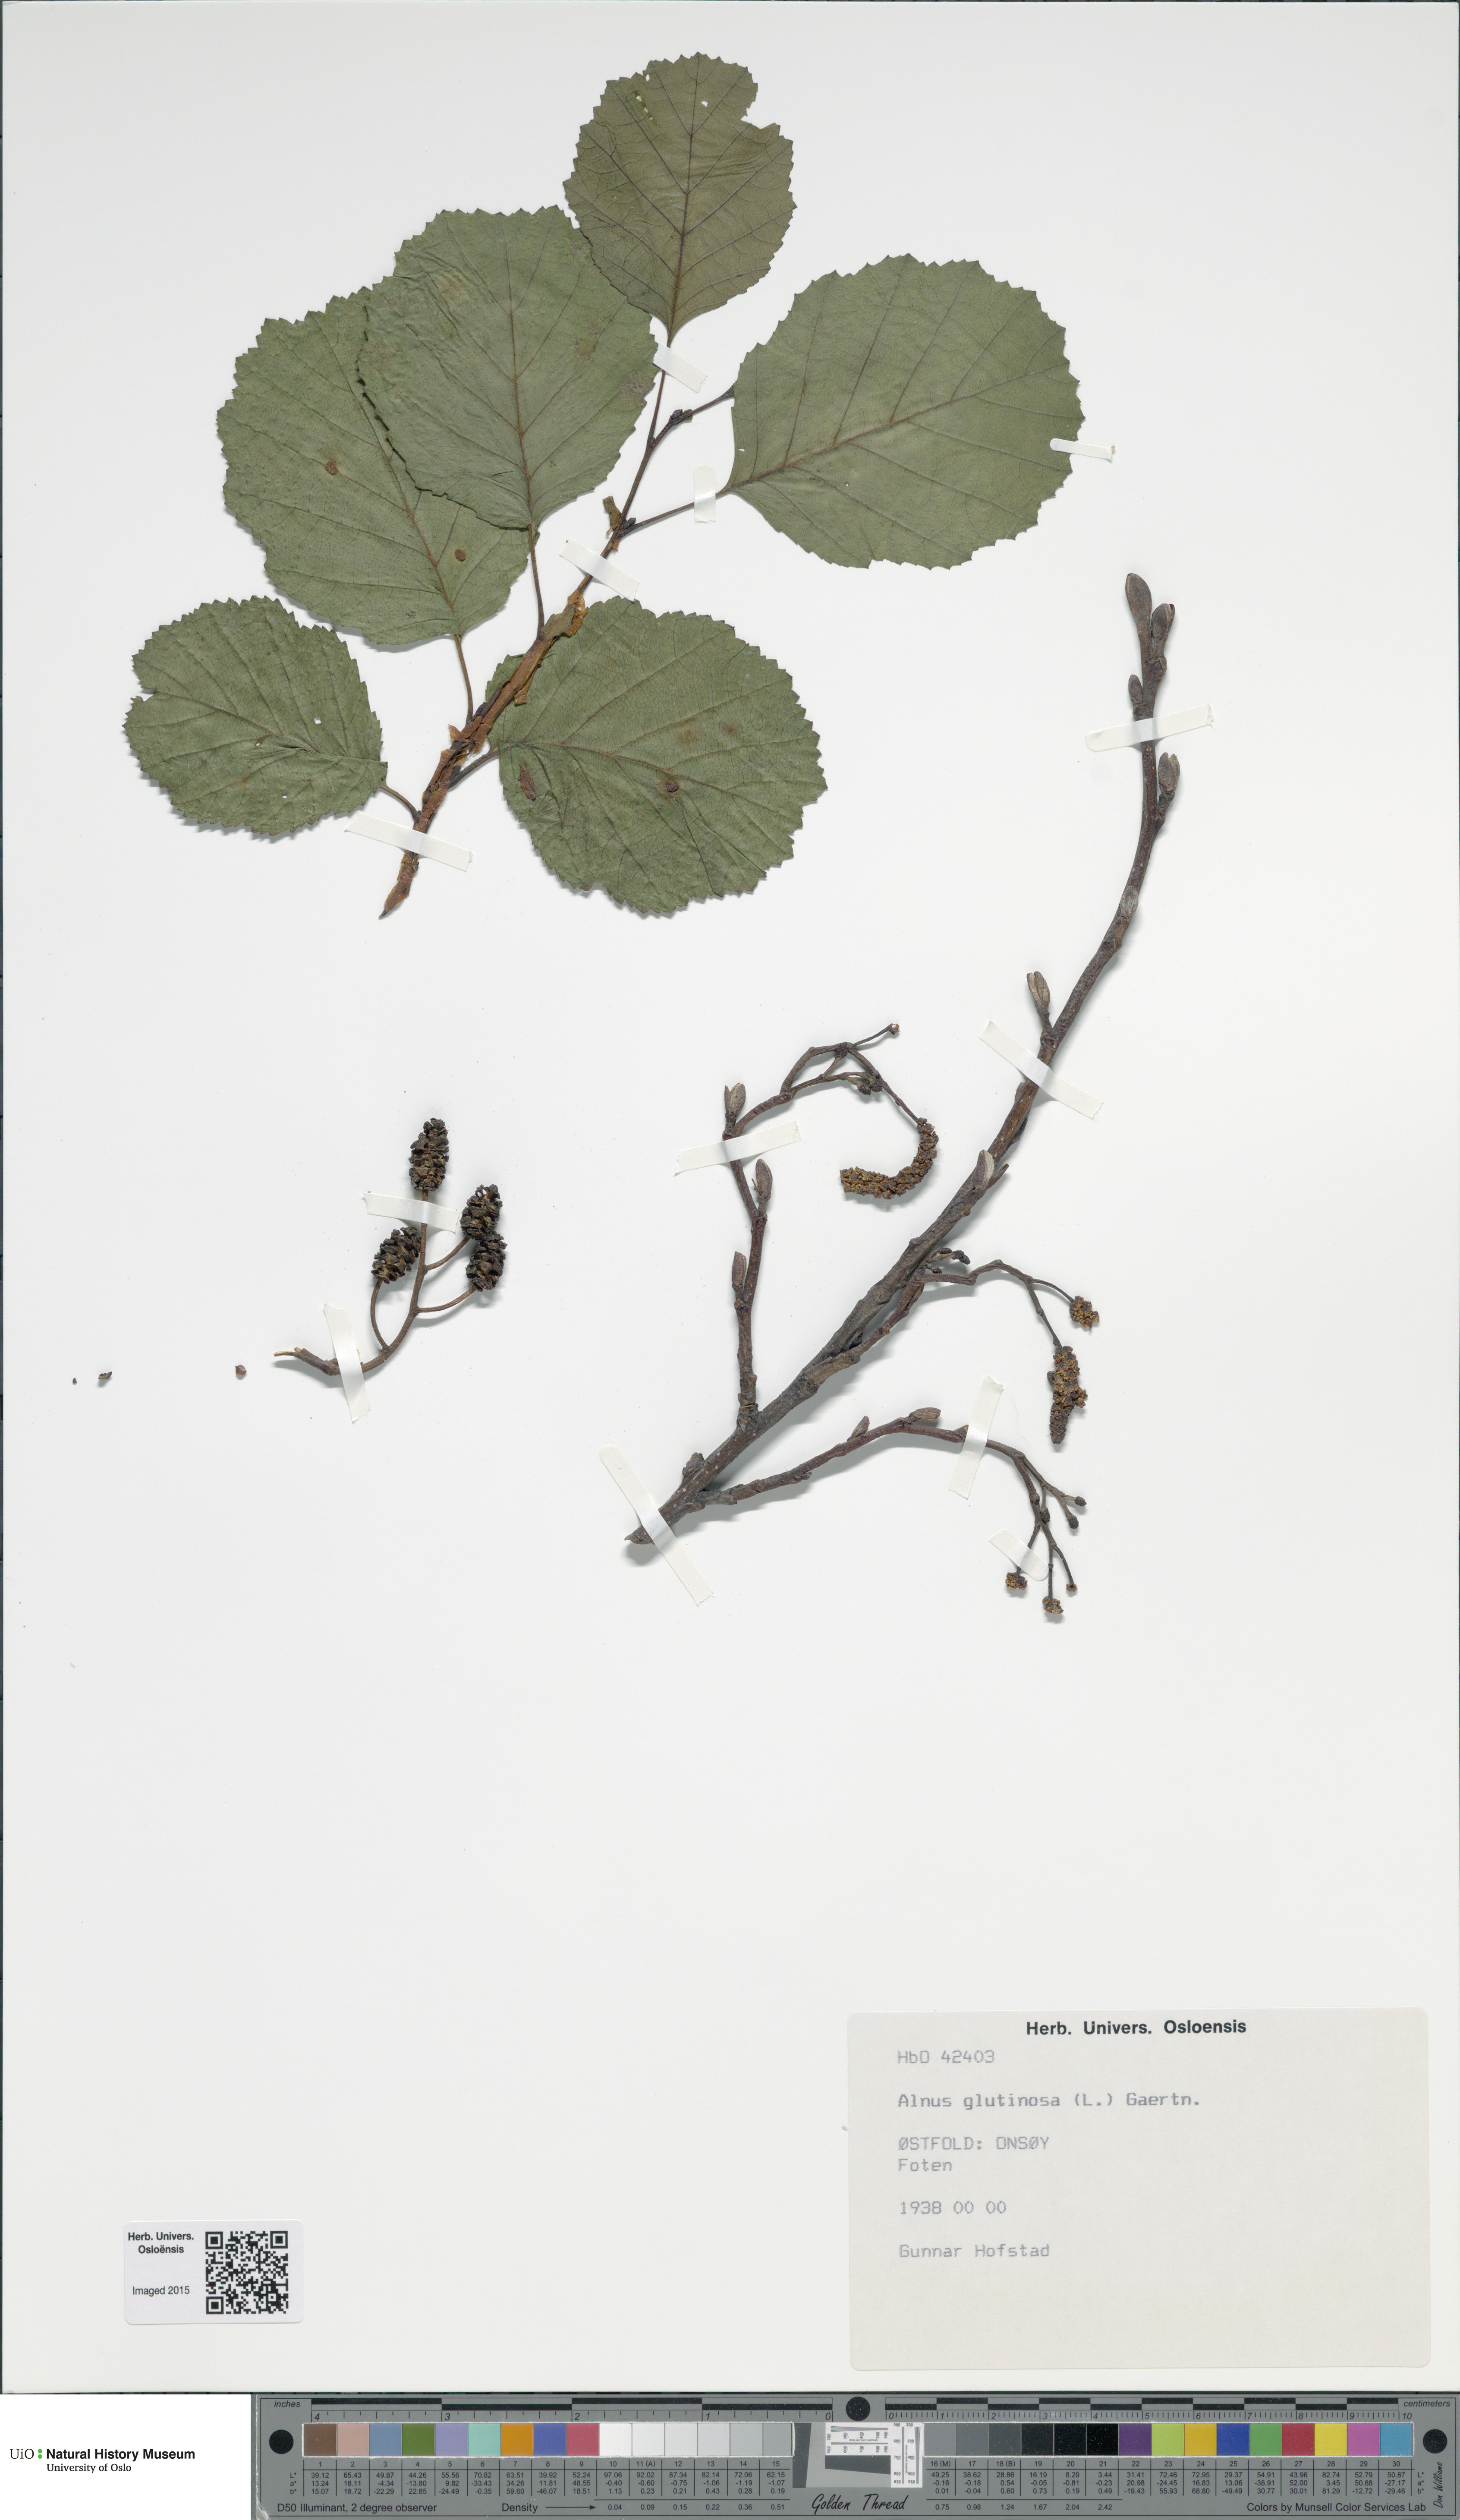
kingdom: Plantae
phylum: Tracheophyta
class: Magnoliopsida
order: Fagales
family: Betulaceae
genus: Alnus
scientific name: Alnus glutinosa
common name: Black alder
